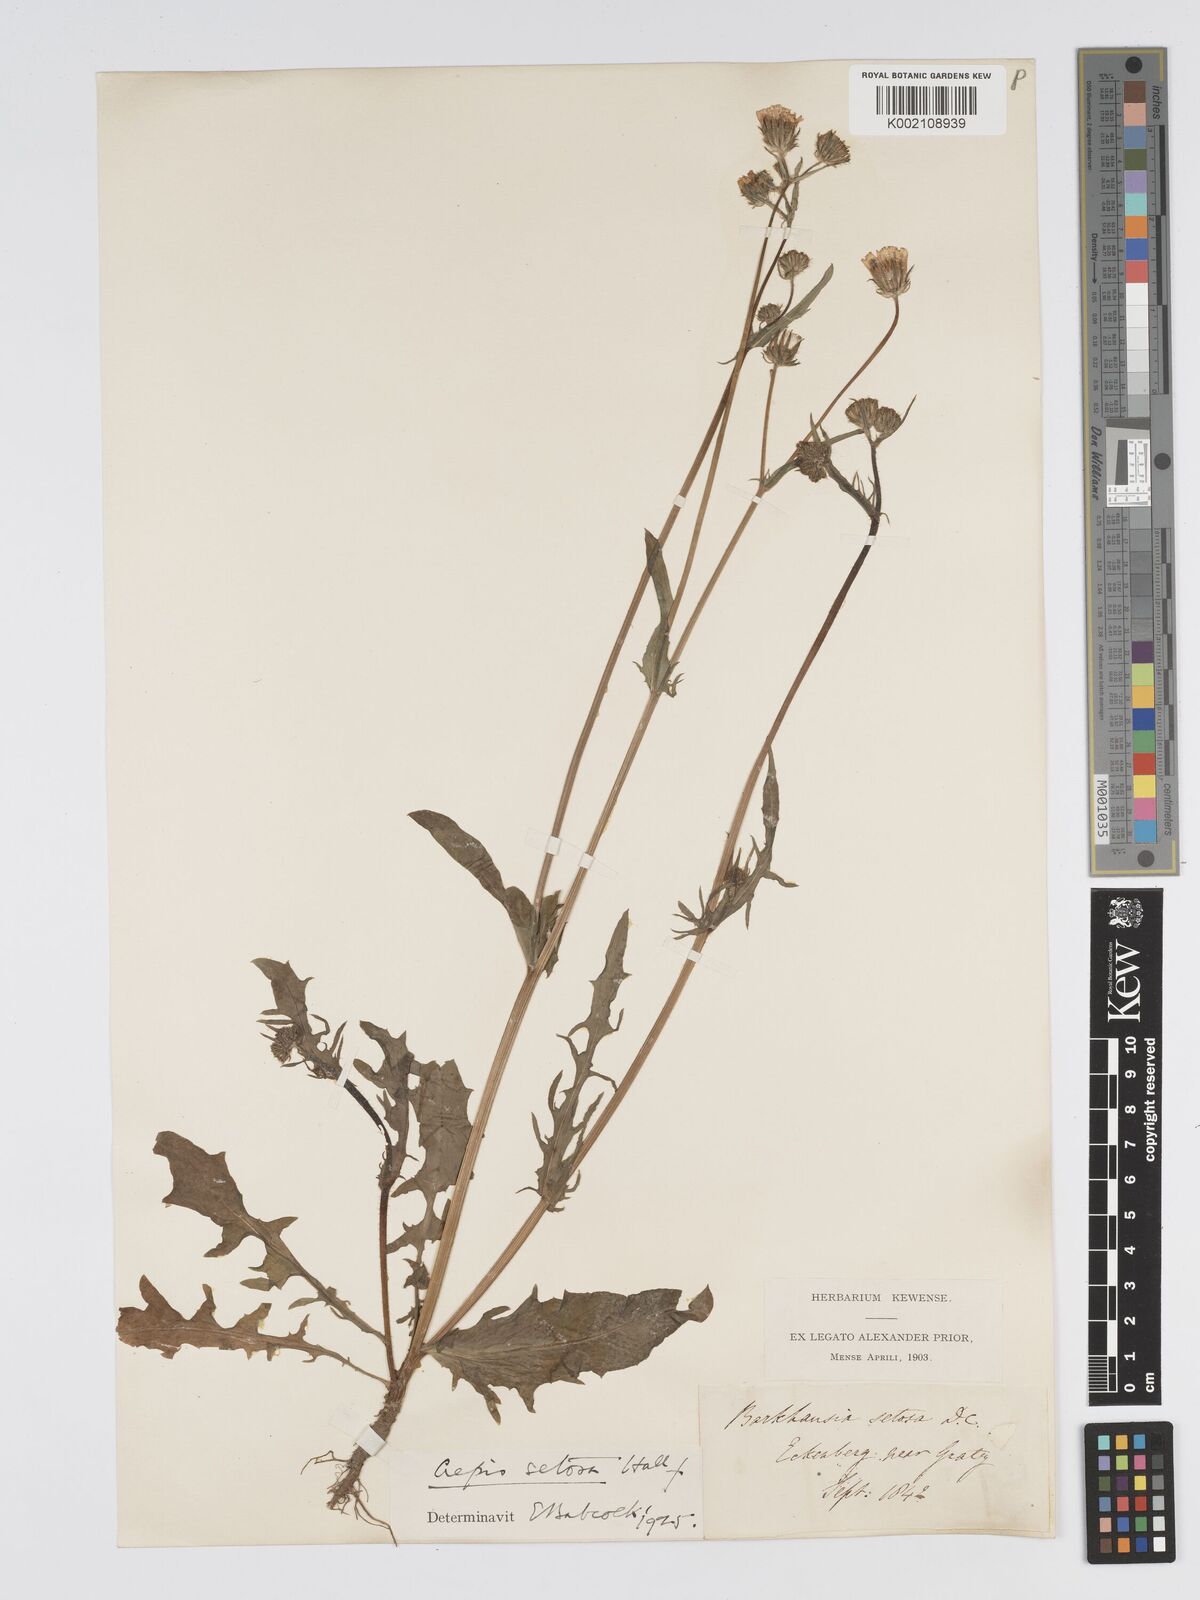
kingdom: Plantae
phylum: Tracheophyta
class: Magnoliopsida
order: Asterales
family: Asteraceae
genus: Crepis
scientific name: Crepis setosa
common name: Bristly hawk's-beard
